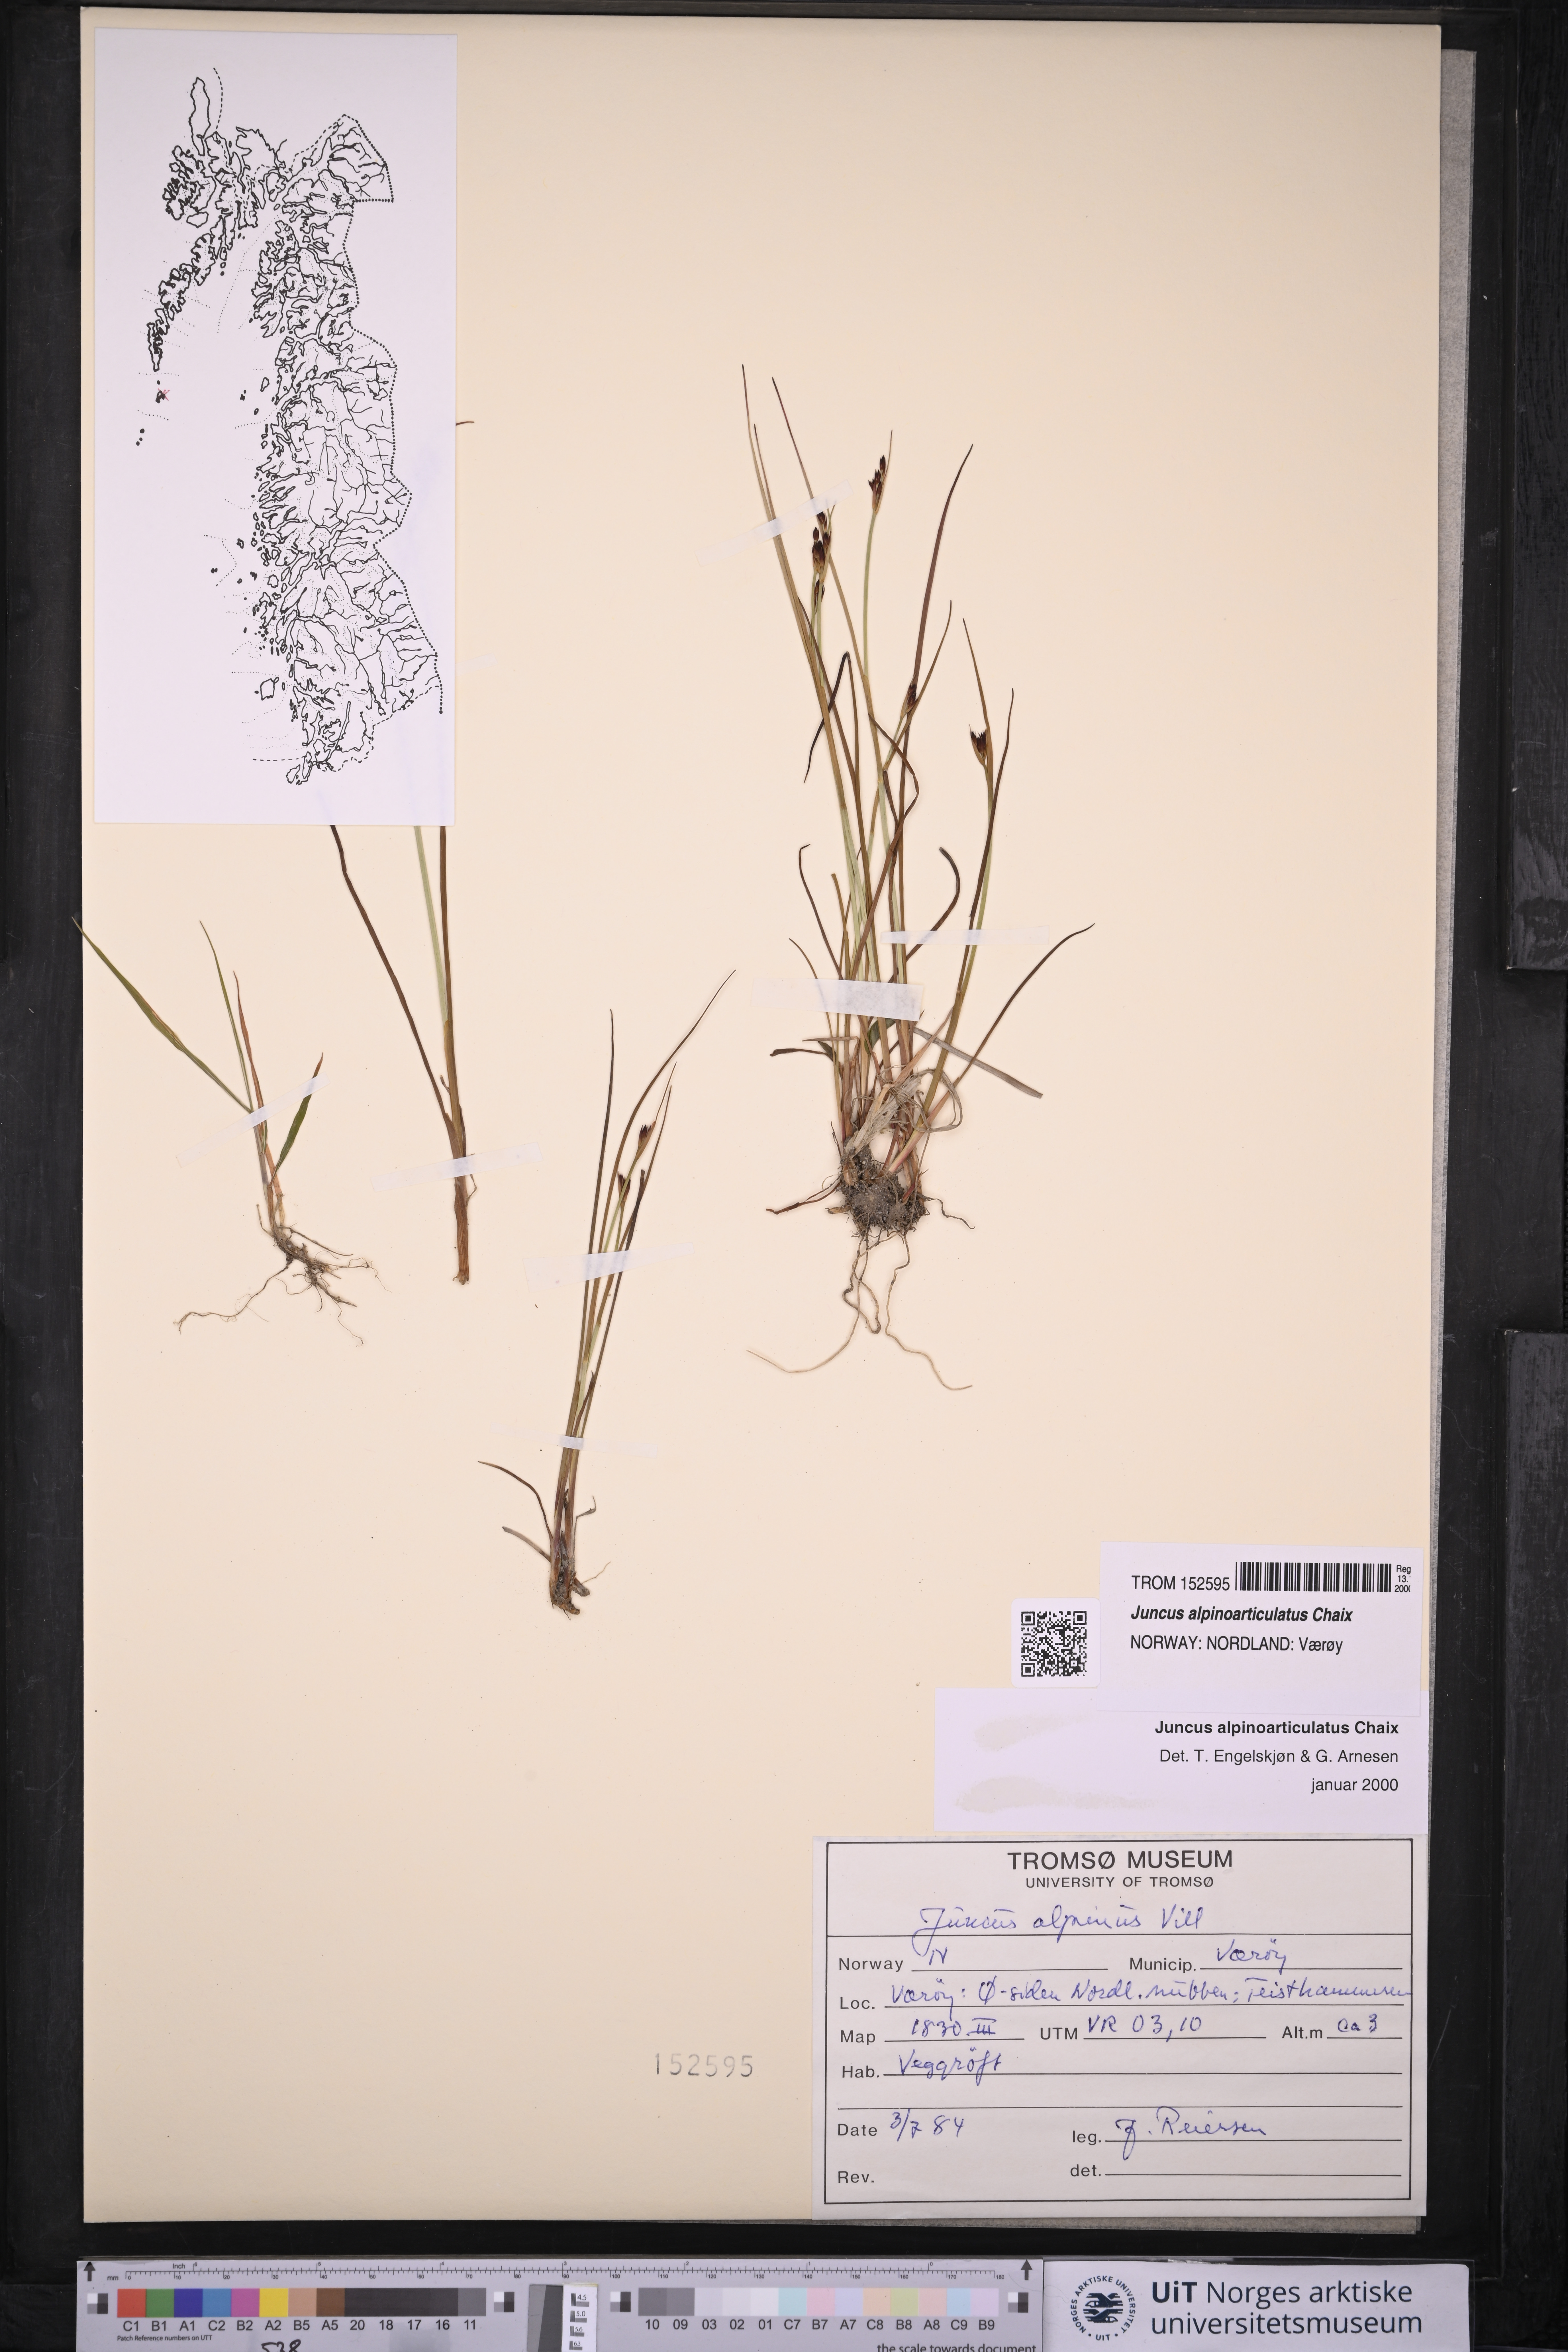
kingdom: Plantae
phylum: Tracheophyta
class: Liliopsida
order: Poales
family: Juncaceae
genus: Juncus
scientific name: Juncus alpinoarticulatus
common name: Alpine rush
